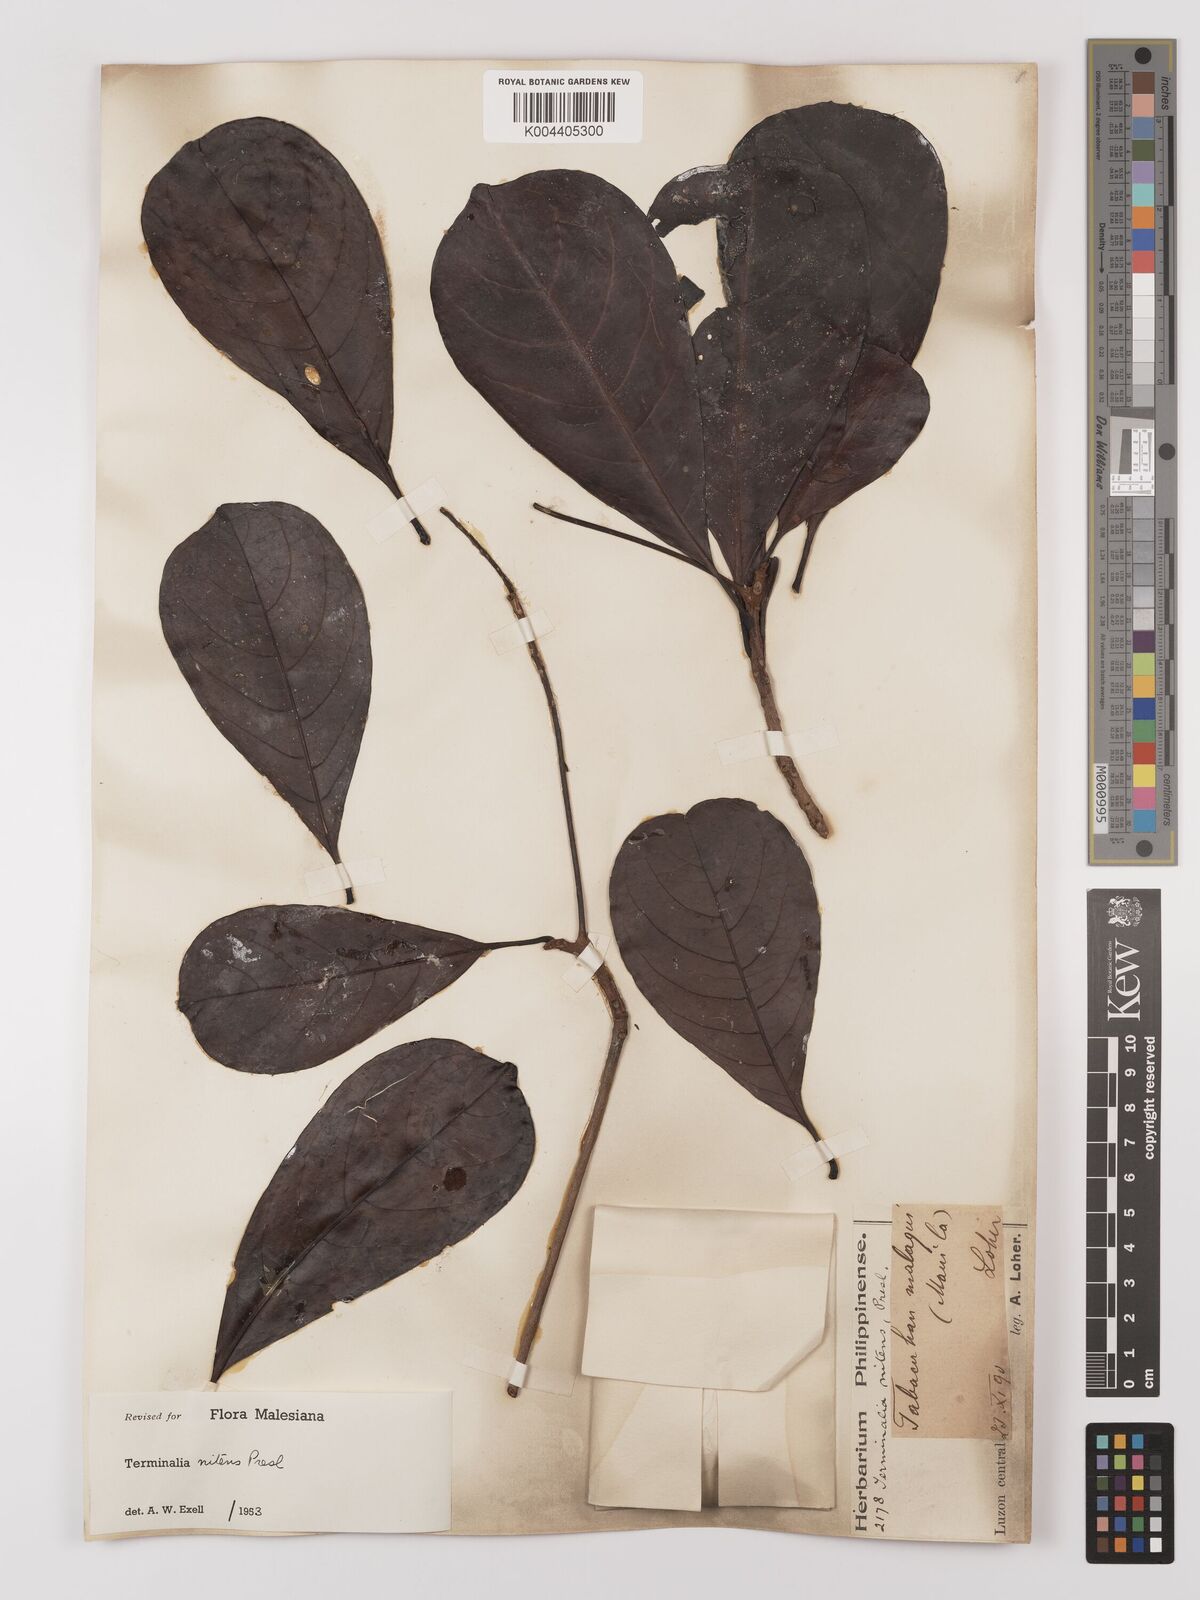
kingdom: Plantae
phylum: Tracheophyta
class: Magnoliopsida
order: Myrtales
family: Combretaceae
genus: Terminalia
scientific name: Terminalia nitens
